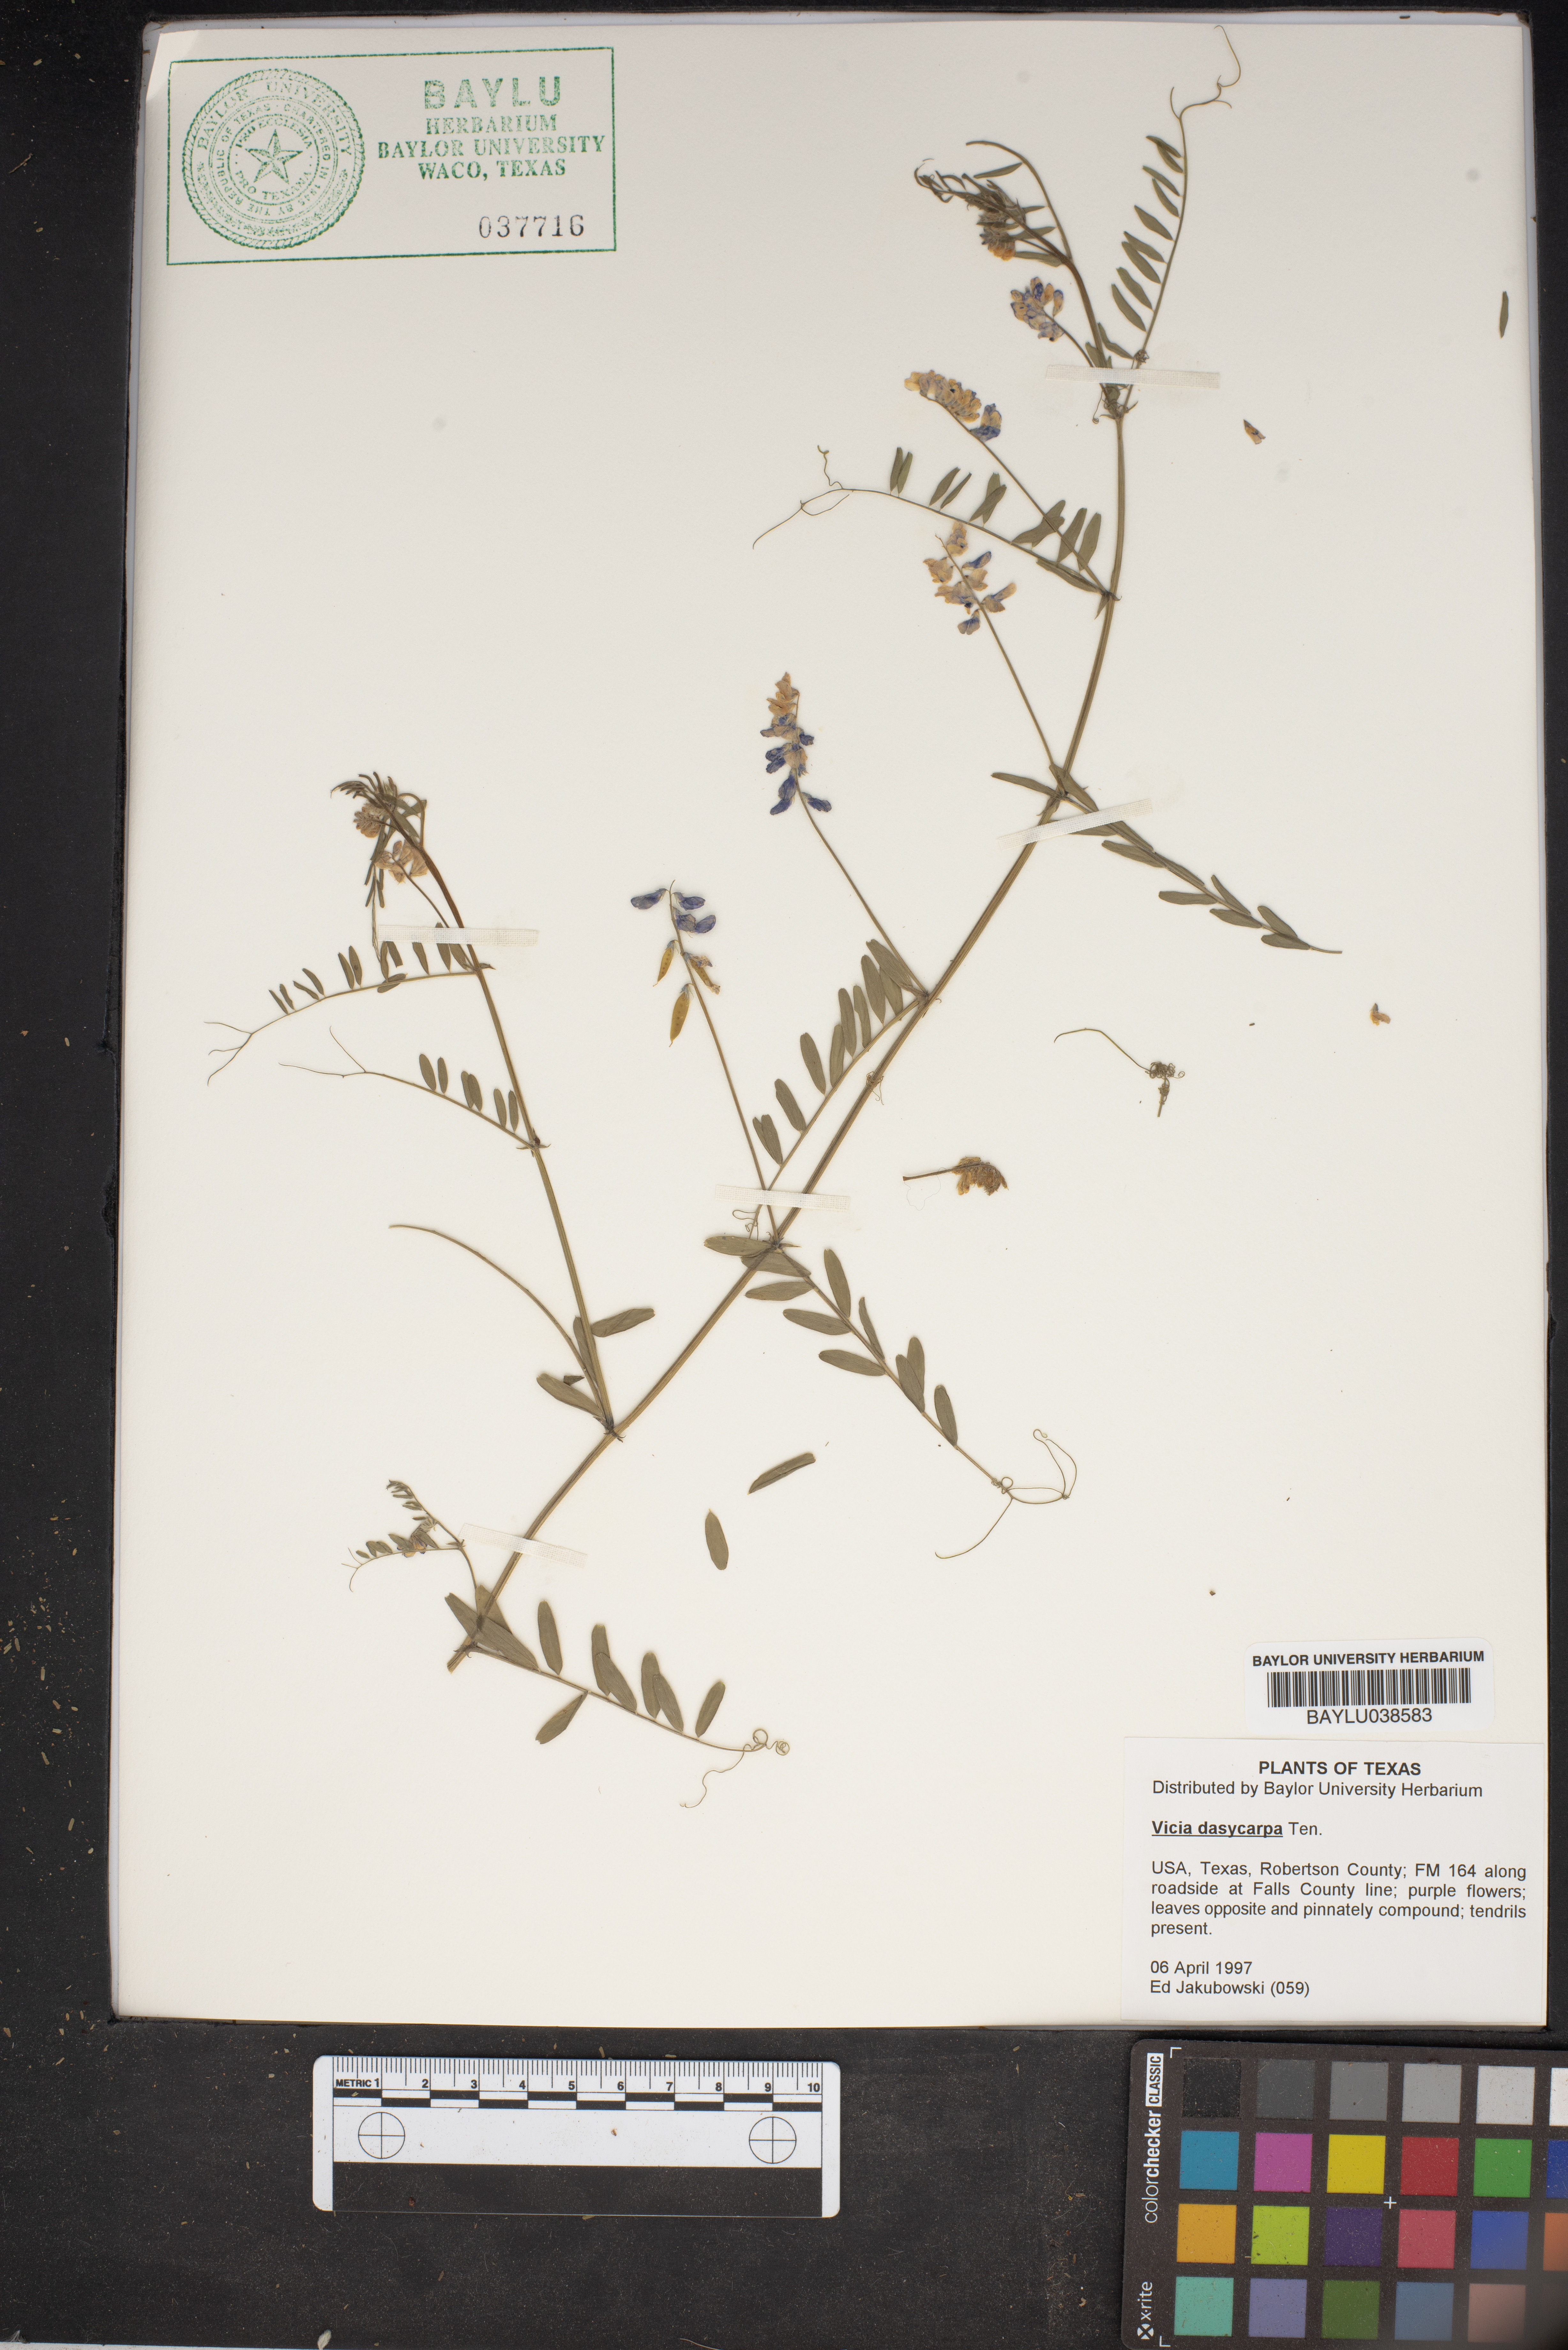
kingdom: Plantae
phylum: Tracheophyta
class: Magnoliopsida
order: Fabales
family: Fabaceae
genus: Vicia
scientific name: Vicia villosa
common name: Fodder vetch
